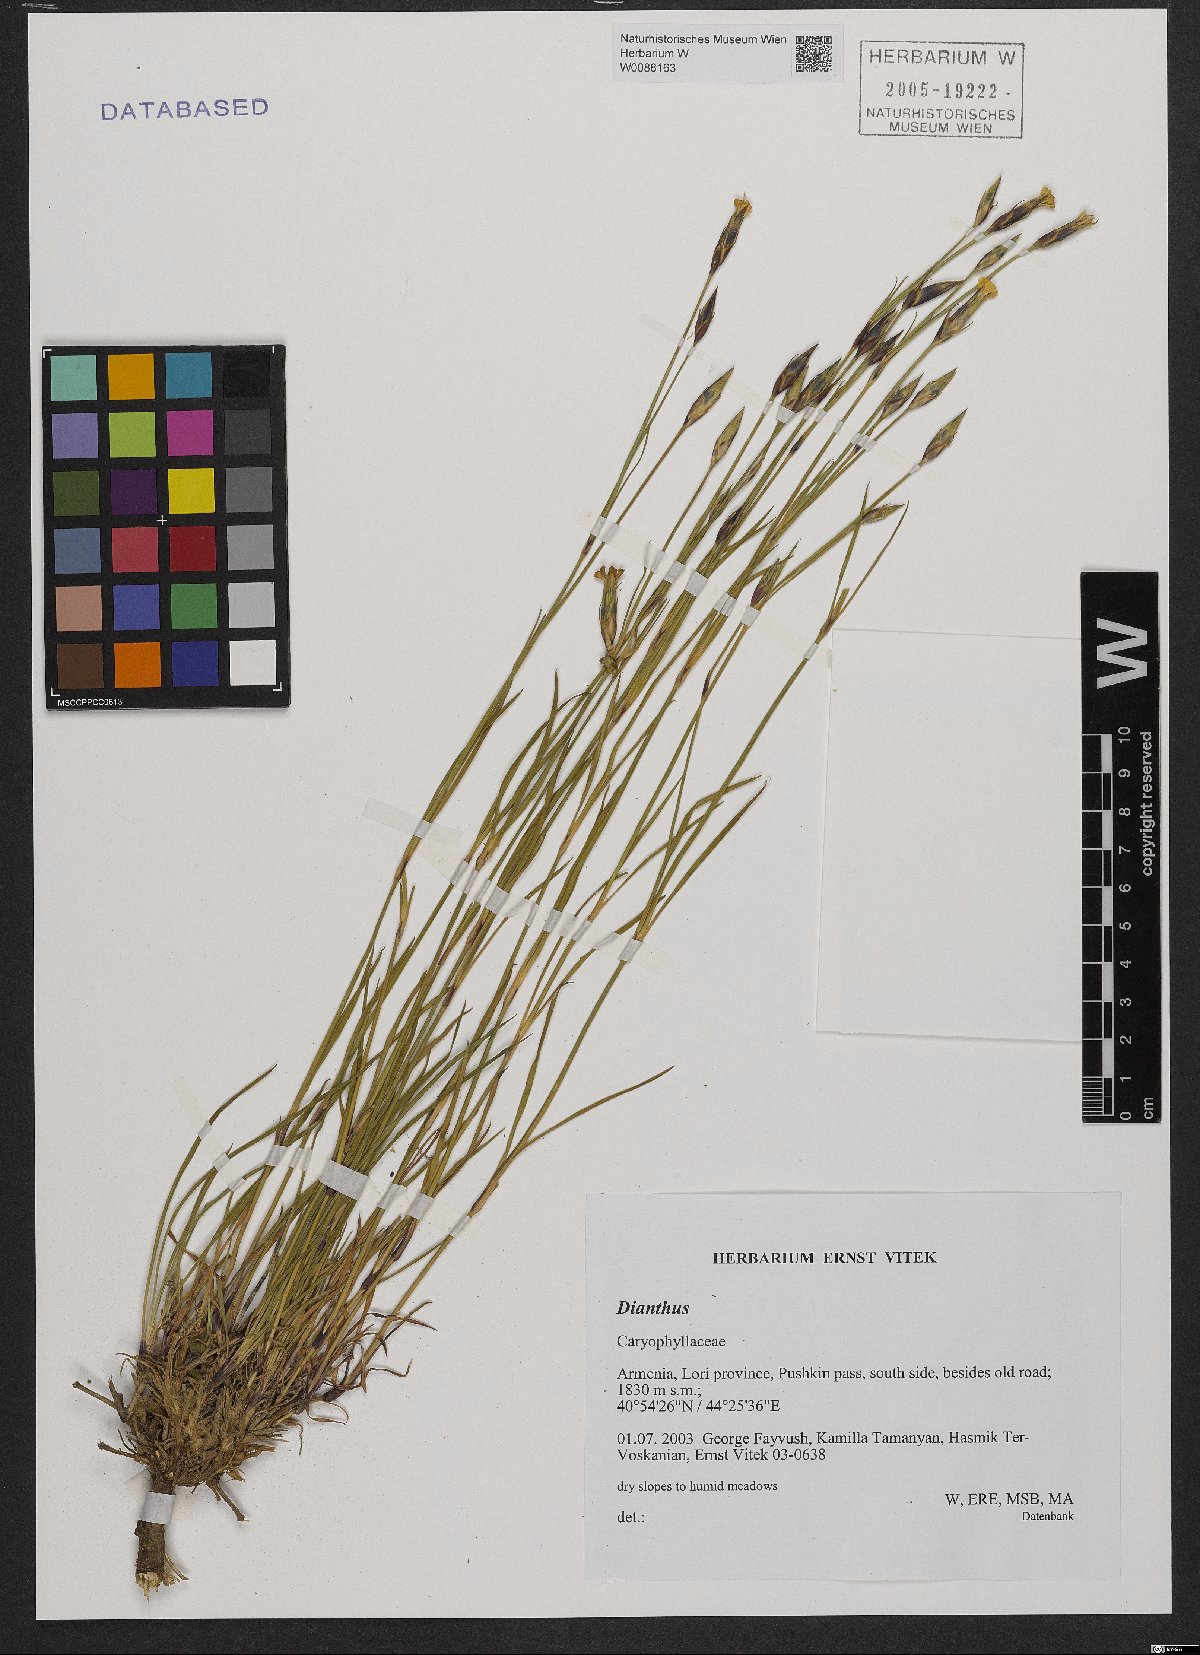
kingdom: Plantae
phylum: Tracheophyta
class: Magnoliopsida
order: Caryophyllales
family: Caryophyllaceae
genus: Dianthus
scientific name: Dianthus
